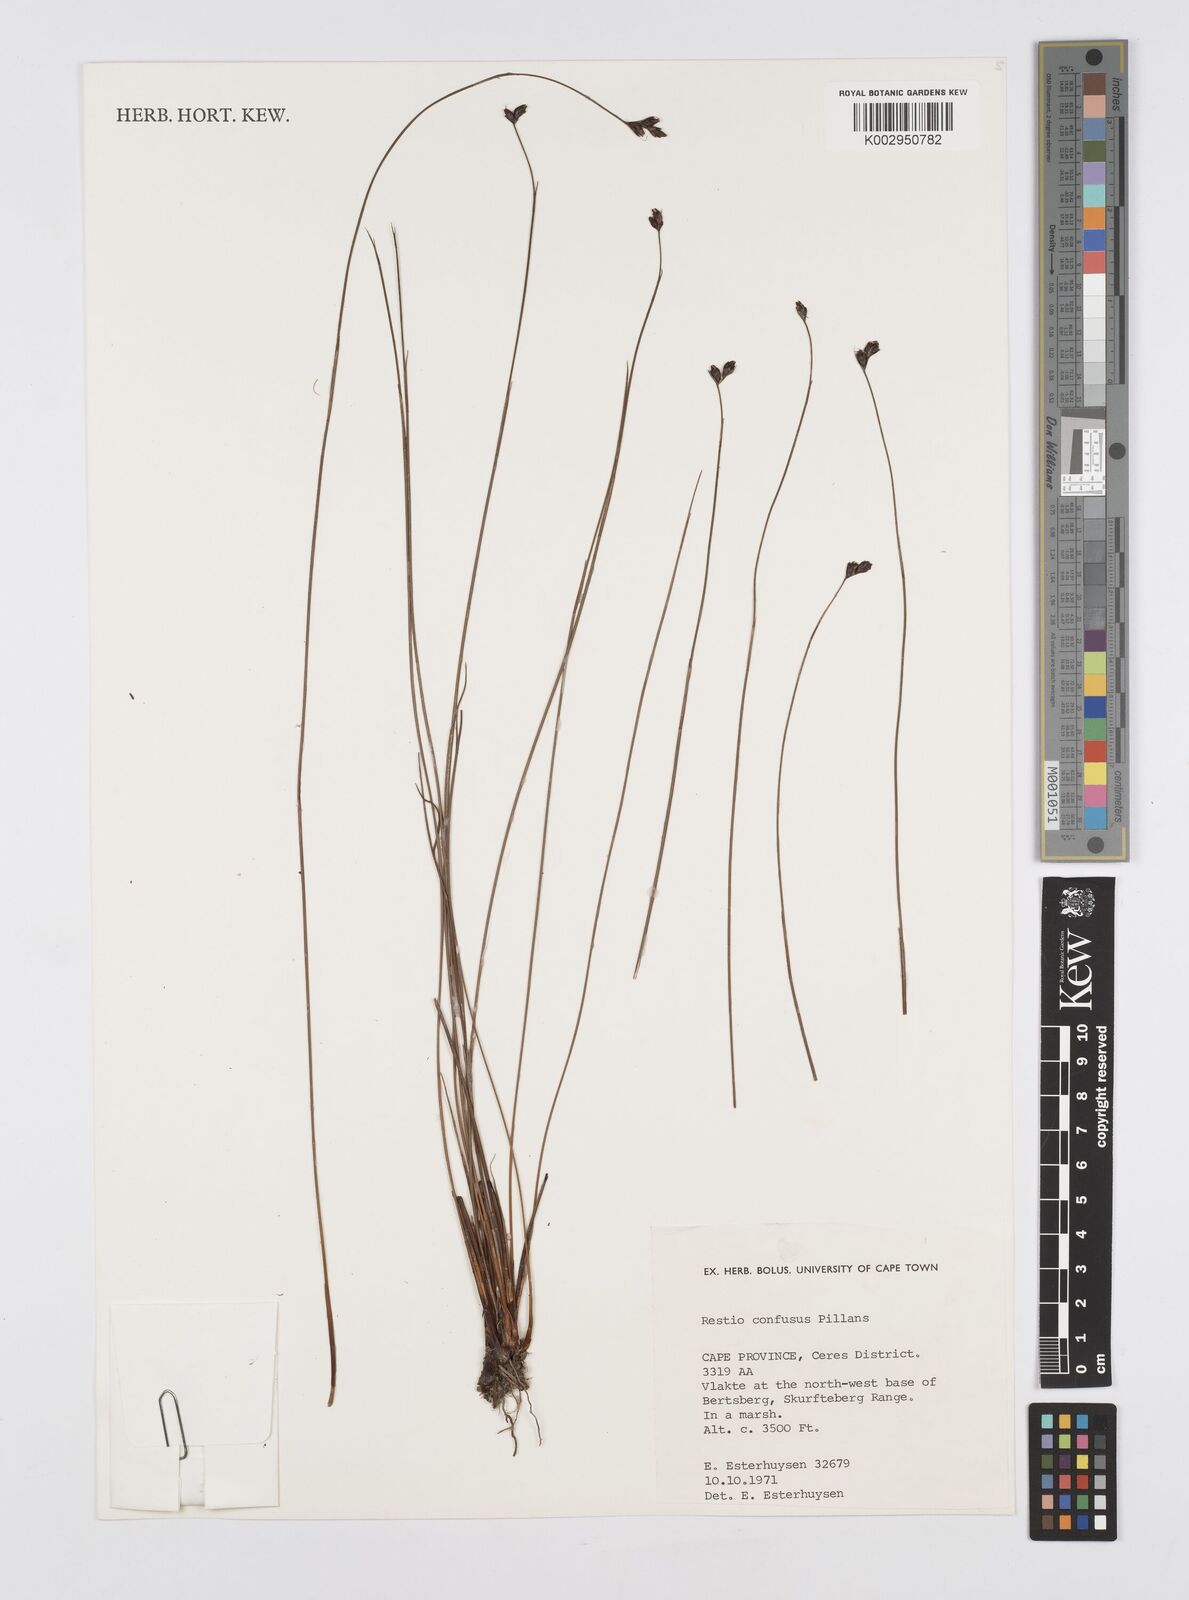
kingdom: Plantae
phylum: Tracheophyta
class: Liliopsida
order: Poales
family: Restionaceae
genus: Restio
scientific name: Restio confusus
